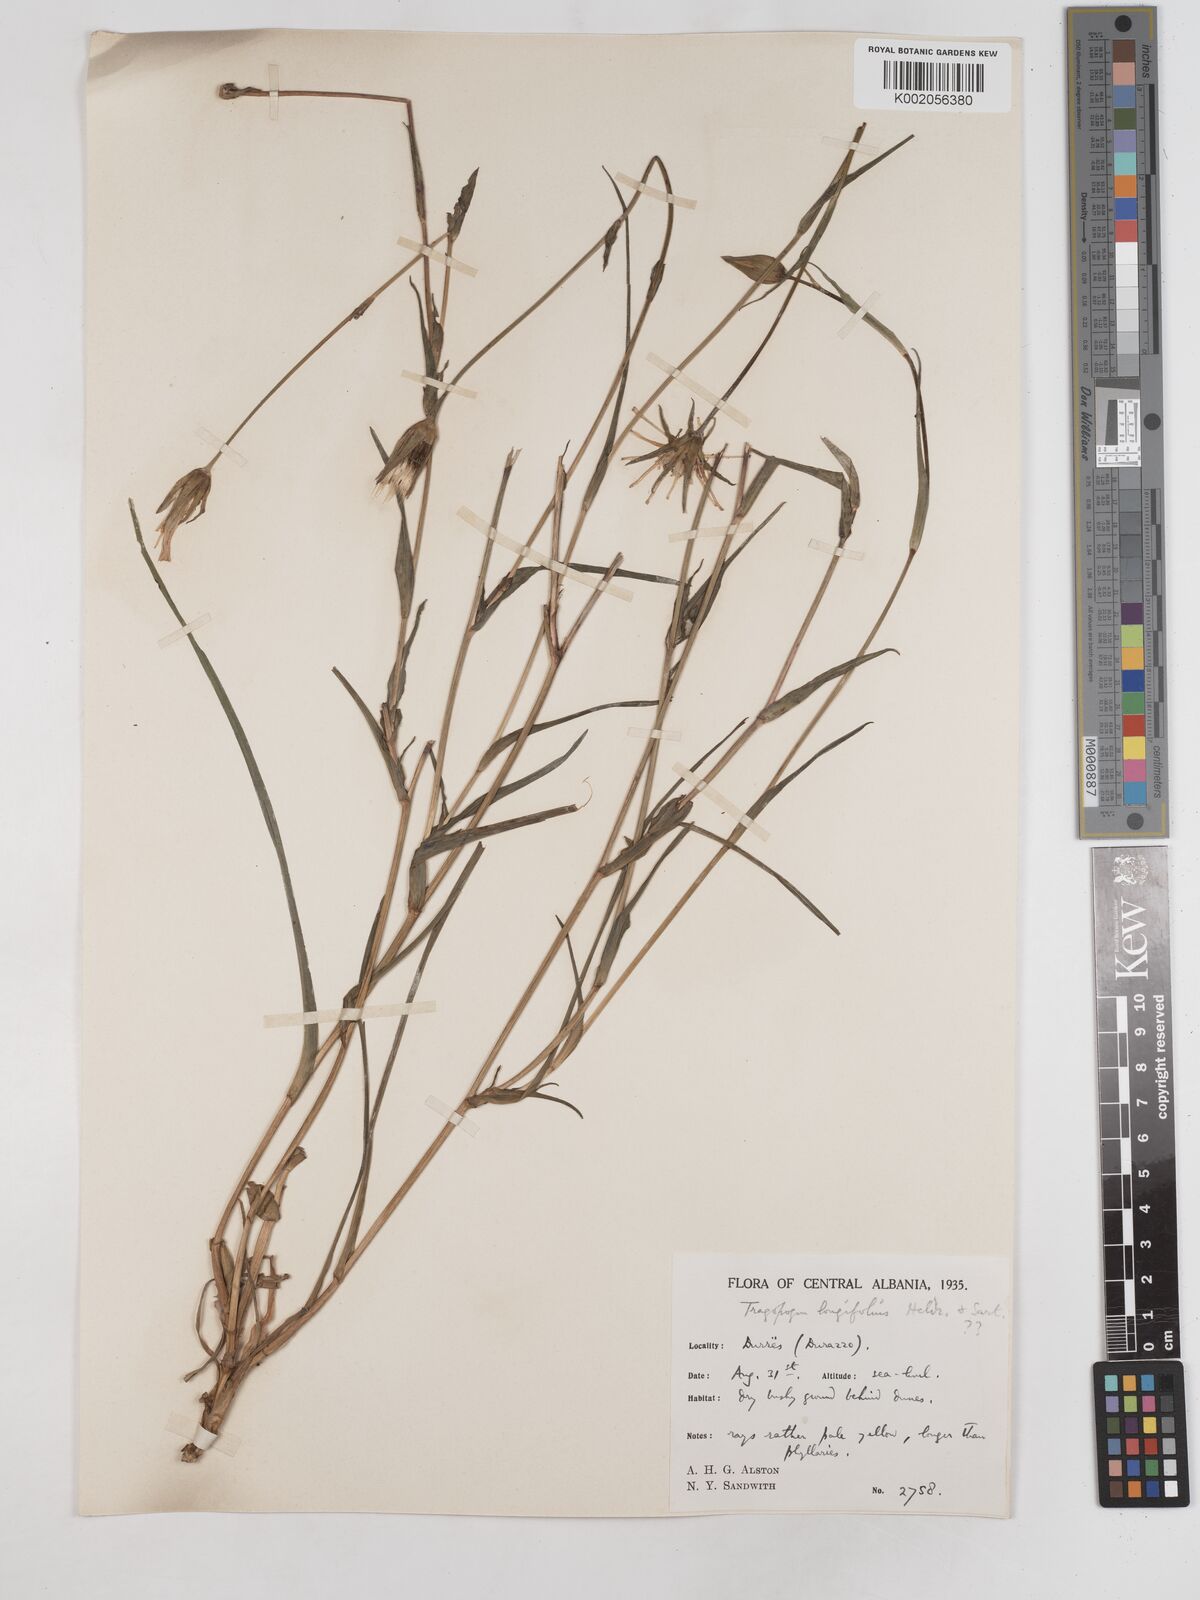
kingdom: Plantae
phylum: Tracheophyta
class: Magnoliopsida
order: Asterales
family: Asteraceae
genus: Tragopogon
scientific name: Tragopogon longifolius
